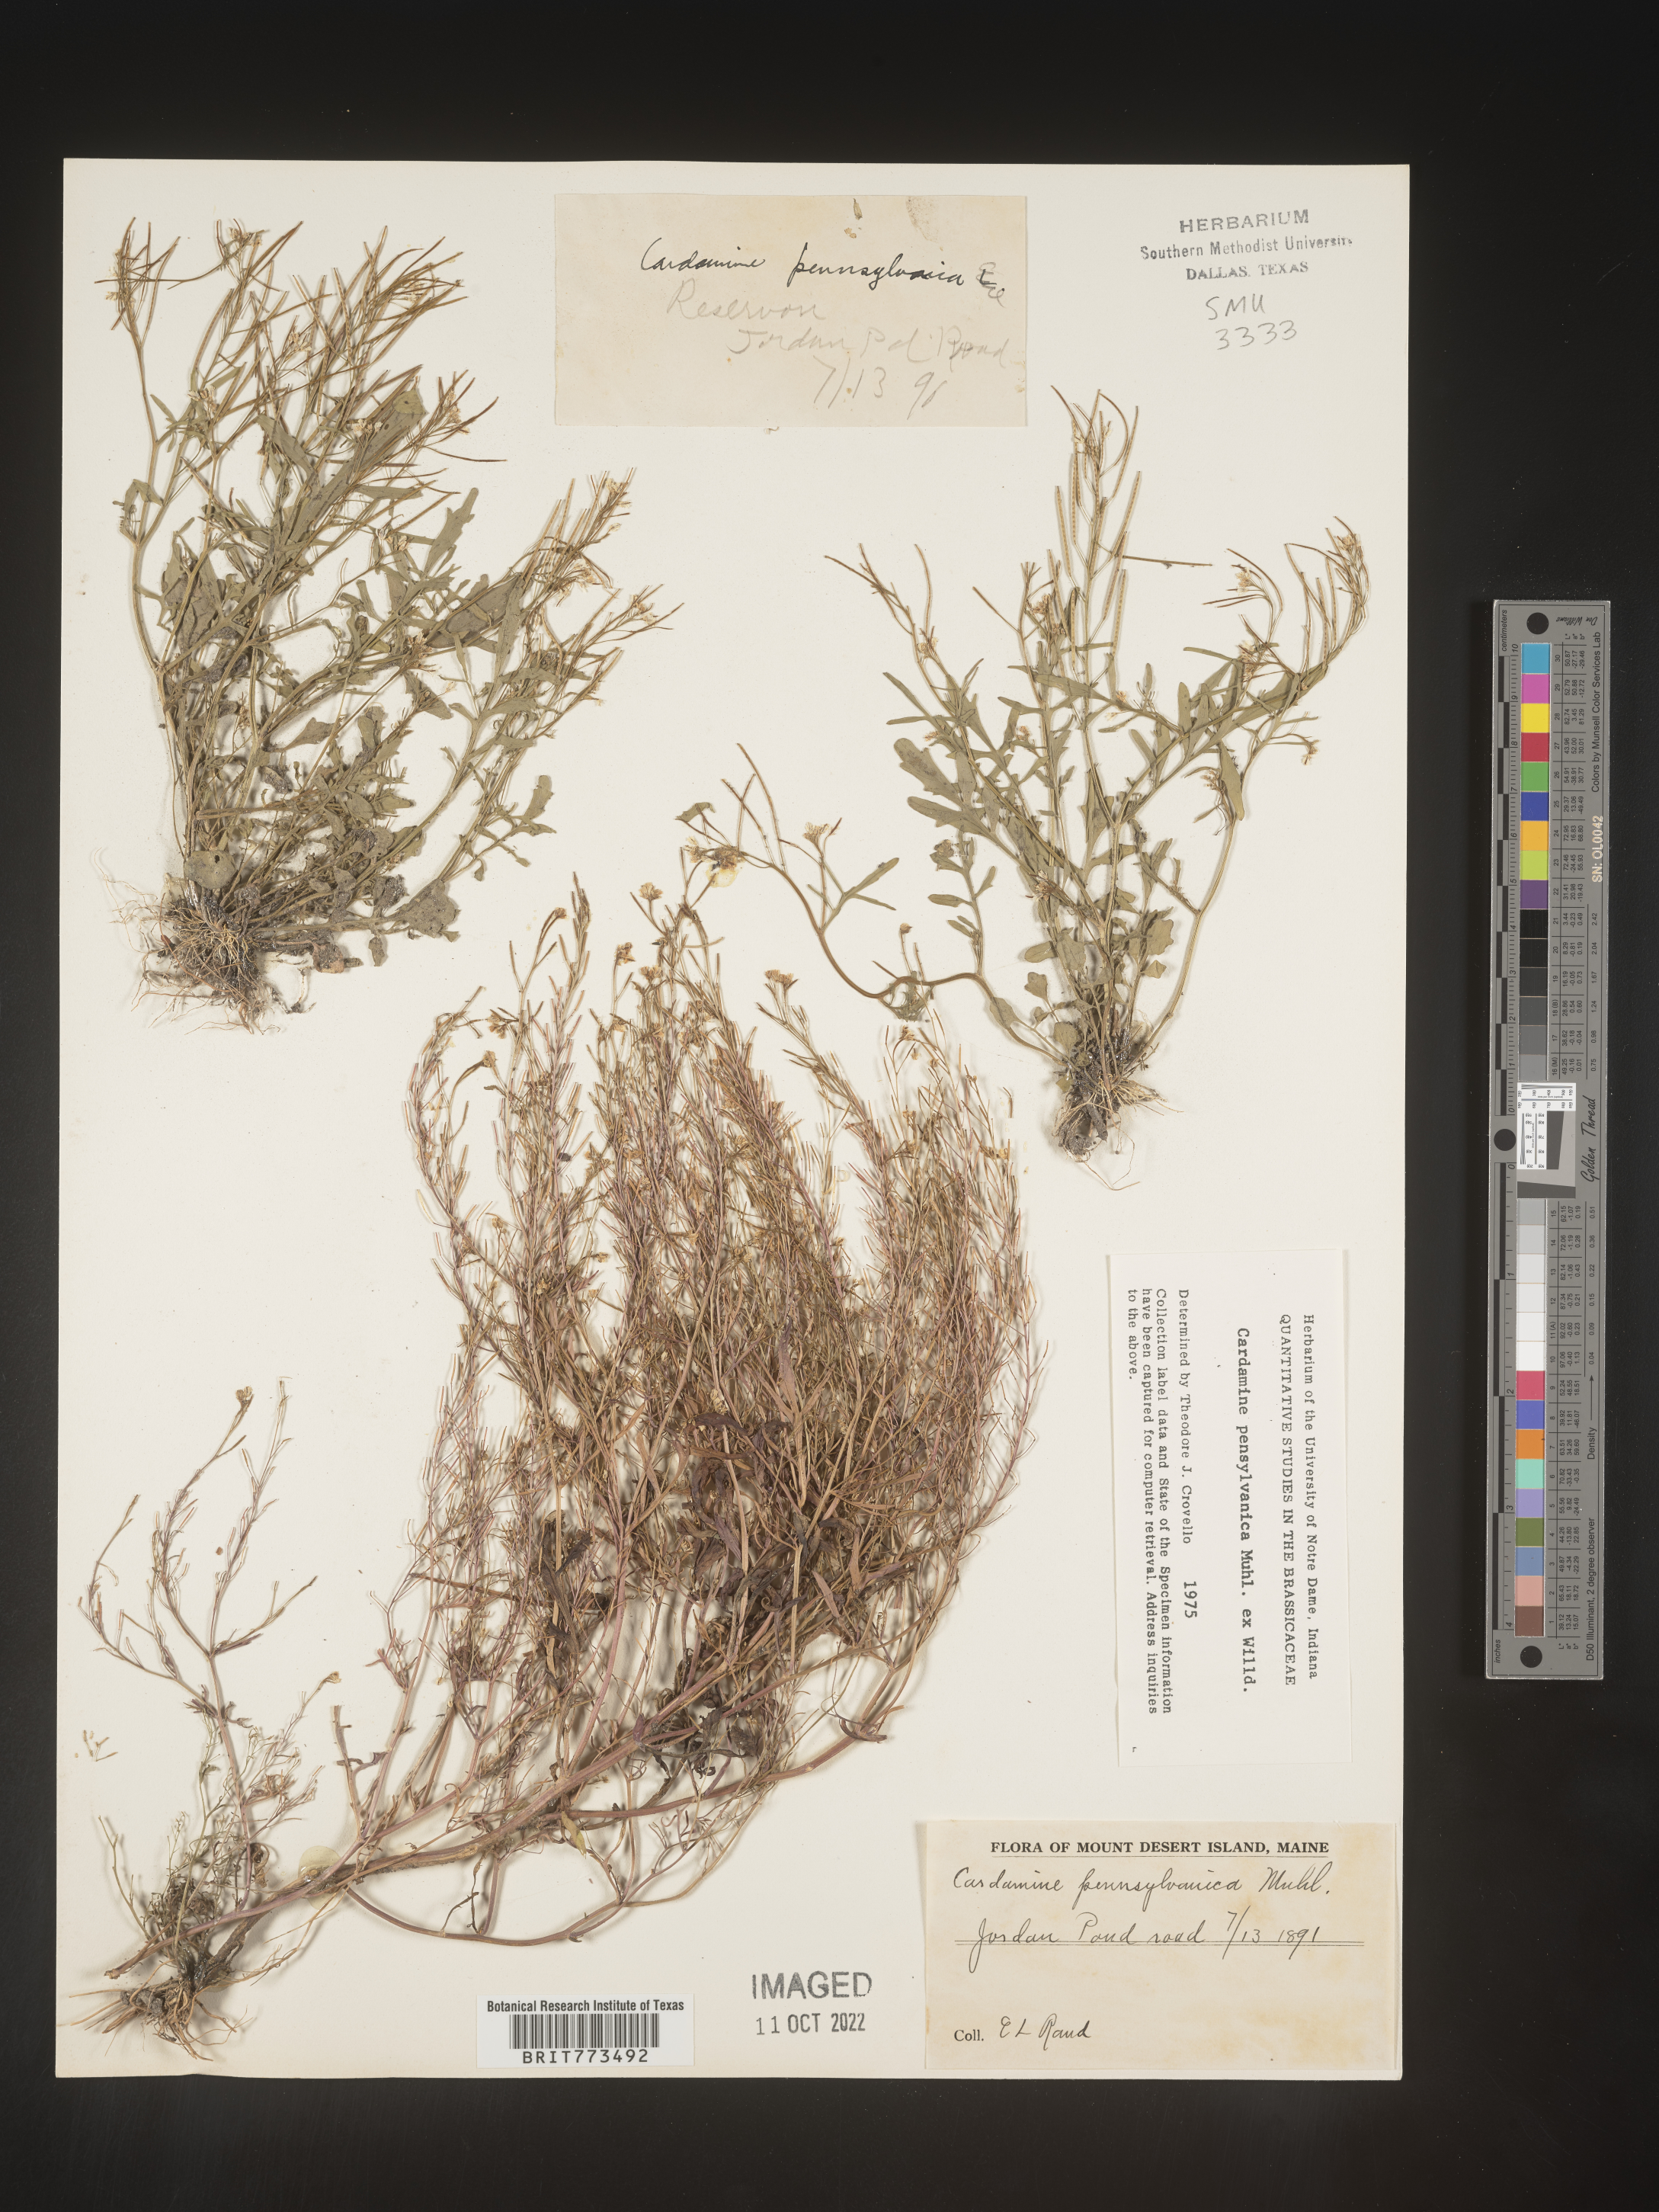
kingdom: Plantae
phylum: Tracheophyta
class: Magnoliopsida
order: Brassicales
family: Brassicaceae
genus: Cardamine
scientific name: Cardamine pensylvanica
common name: Pennsylvania bittercress
